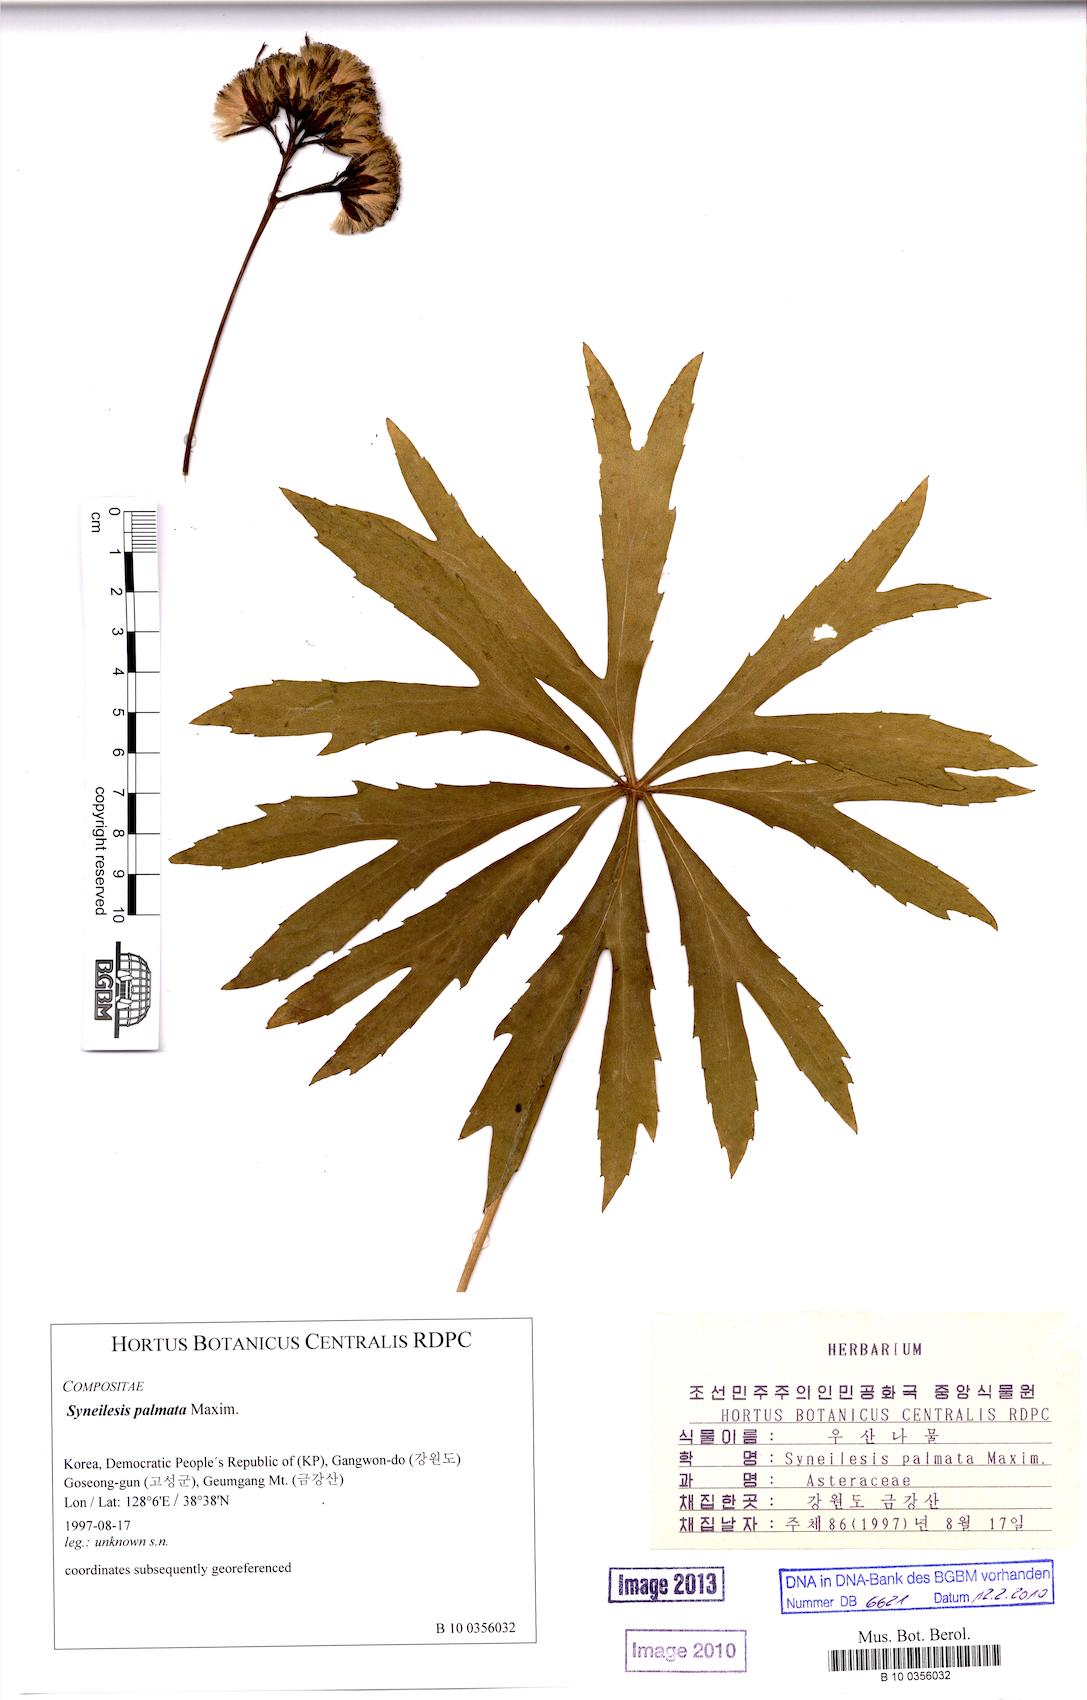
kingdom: Plantae
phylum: Tracheophyta
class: Magnoliopsida
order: Asterales
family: Asteraceae
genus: Syneilesis
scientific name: Syneilesis palmata
